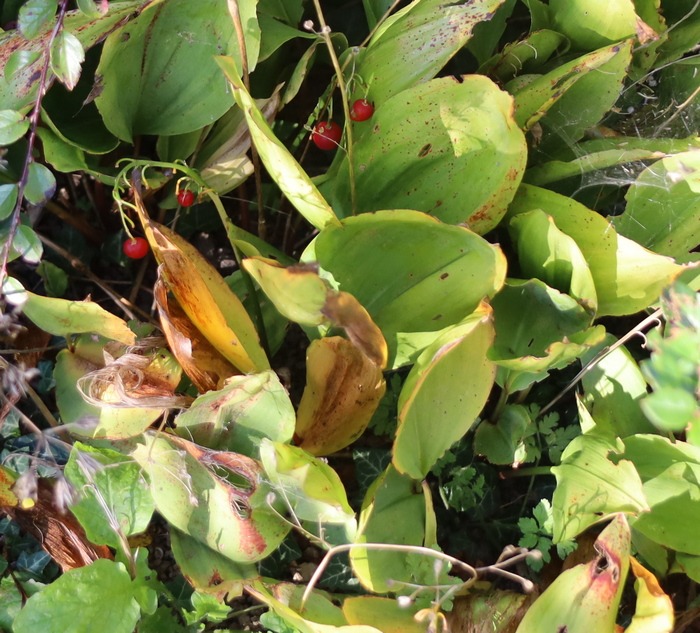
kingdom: Plantae
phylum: Tracheophyta
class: Liliopsida
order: Asparagales
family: Asparagaceae
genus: Convallaria
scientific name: Convallaria majalis
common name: Liljekonval
